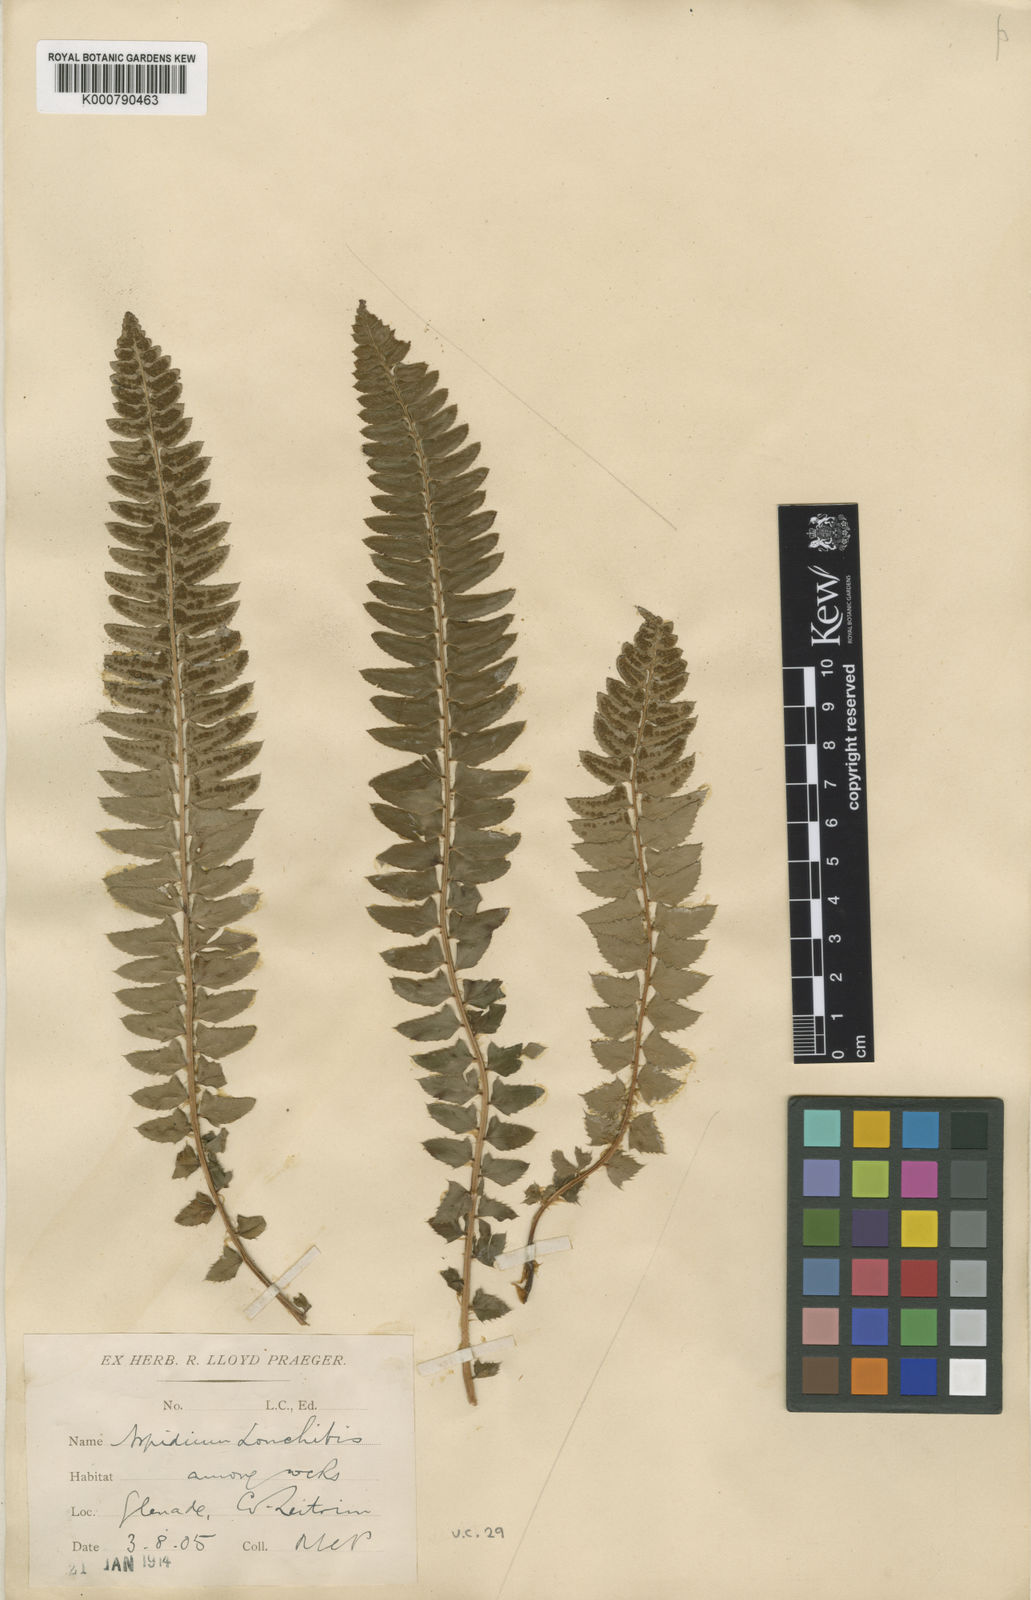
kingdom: Plantae
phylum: Tracheophyta
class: Polypodiopsida
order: Polypodiales
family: Dryopteridaceae
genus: Polystichum
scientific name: Polystichum
